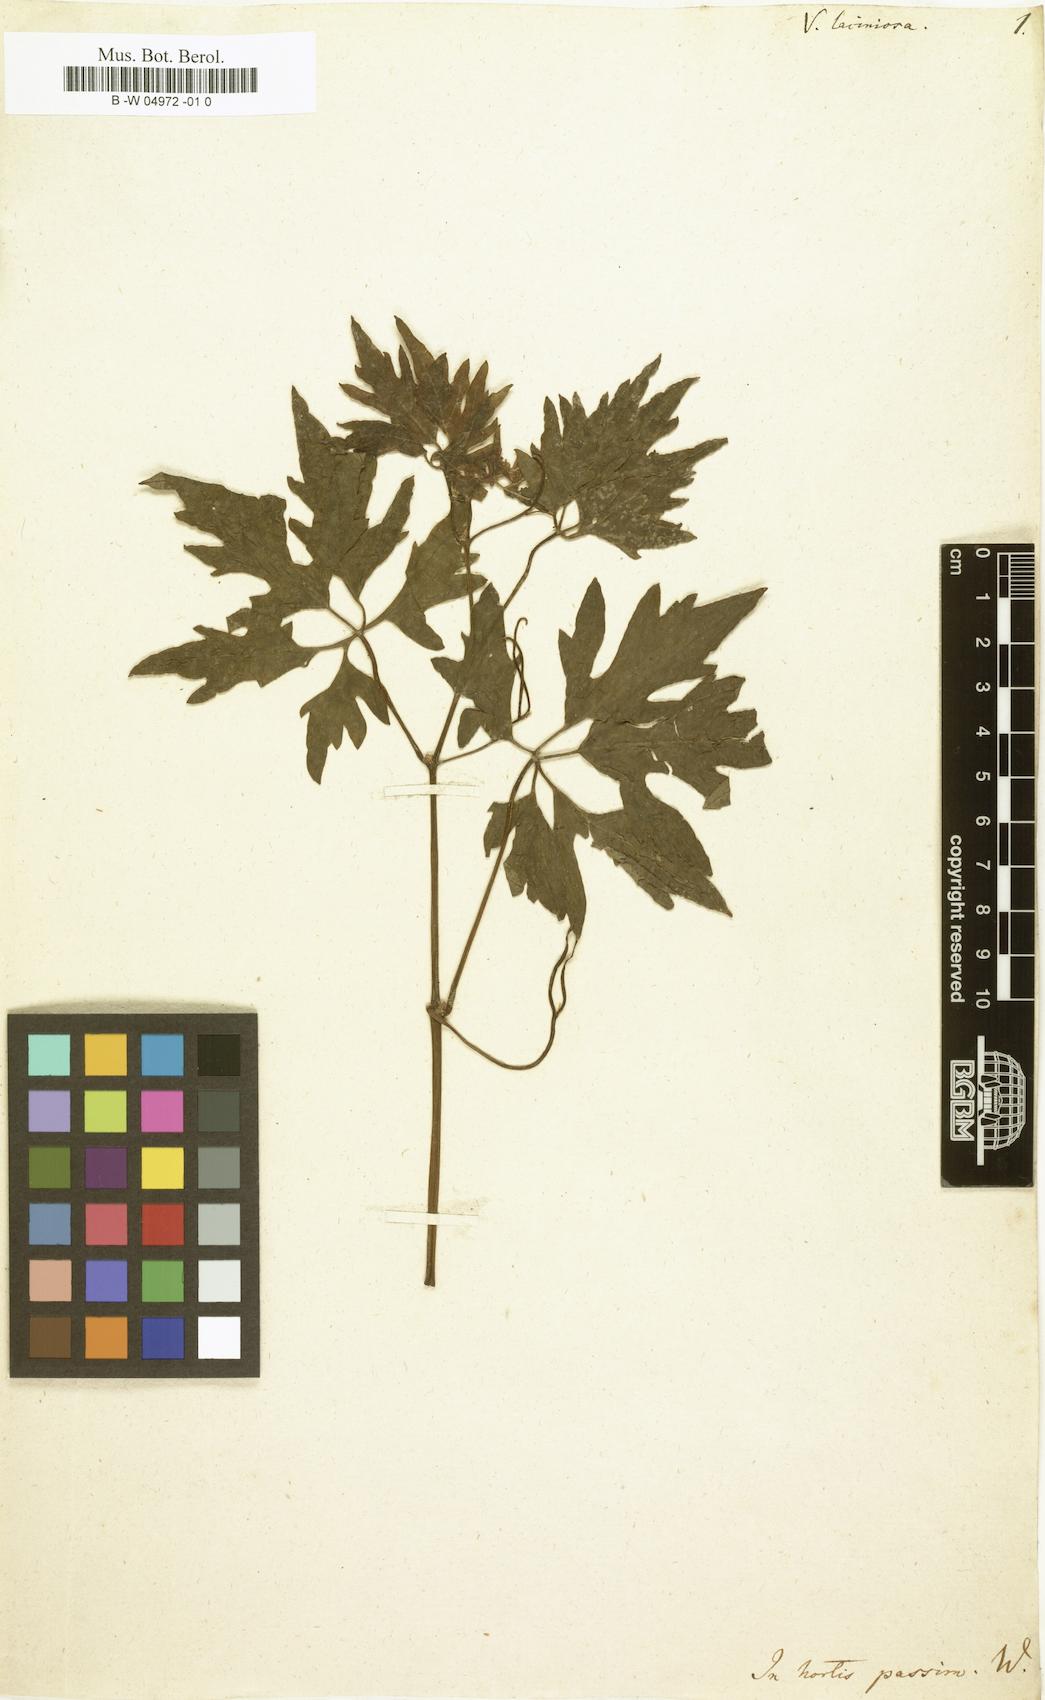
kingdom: Plantae
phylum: Tracheophyta
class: Magnoliopsida
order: Vitales
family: Vitaceae
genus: Vitis
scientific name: Vitis vinifera
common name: Grape-vine
